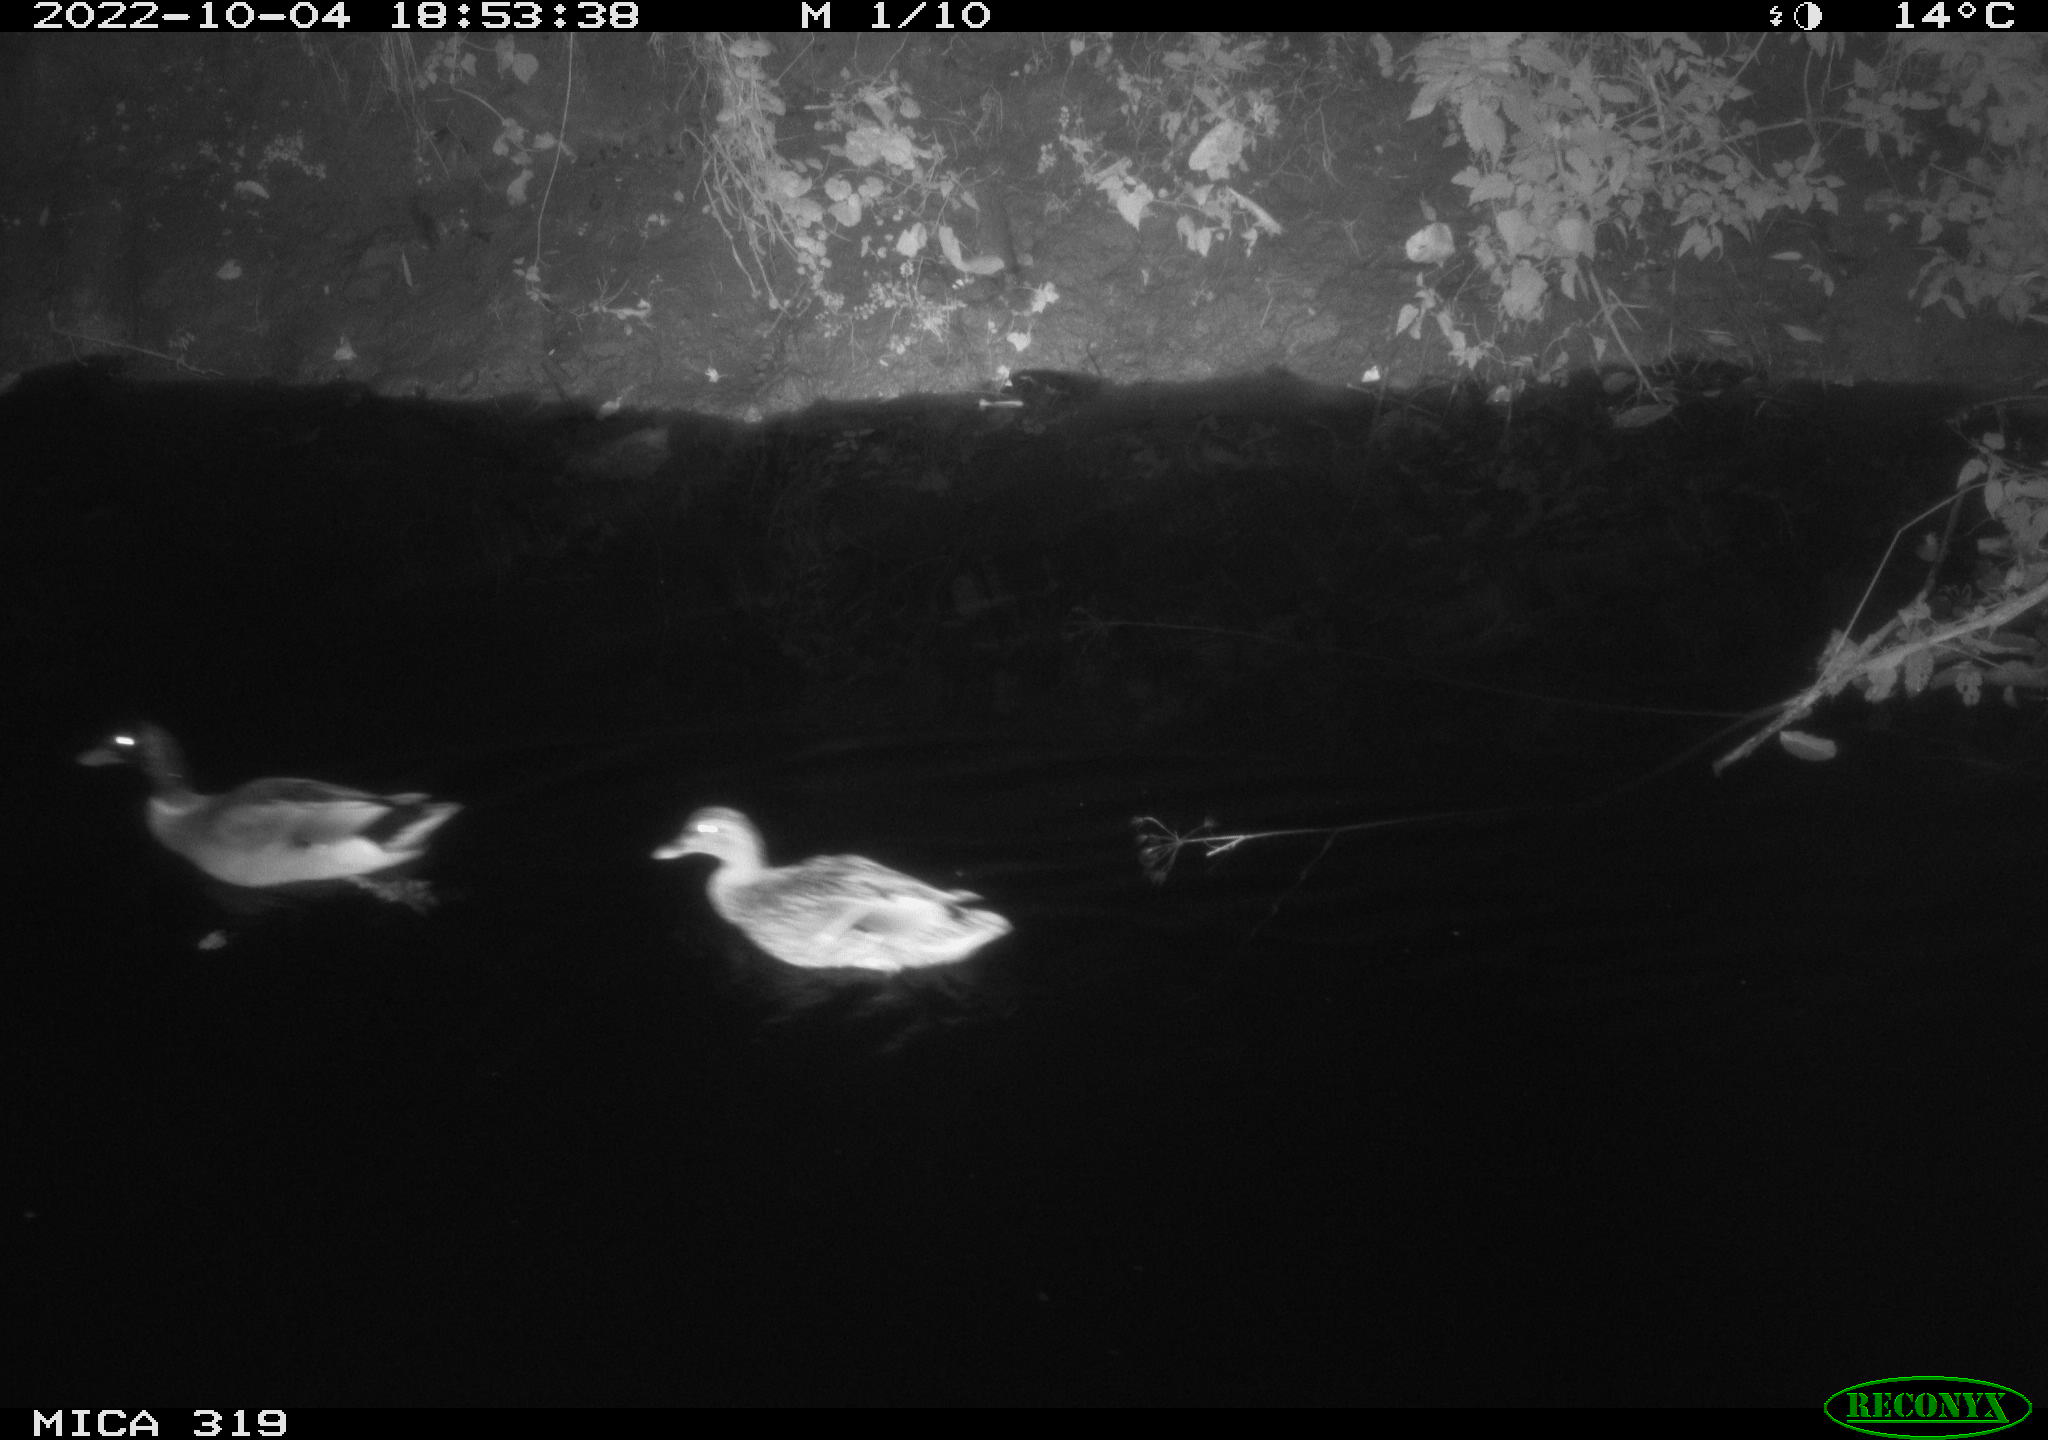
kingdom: Animalia
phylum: Chordata
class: Aves
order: Anseriformes
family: Anatidae
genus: Anas
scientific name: Anas
